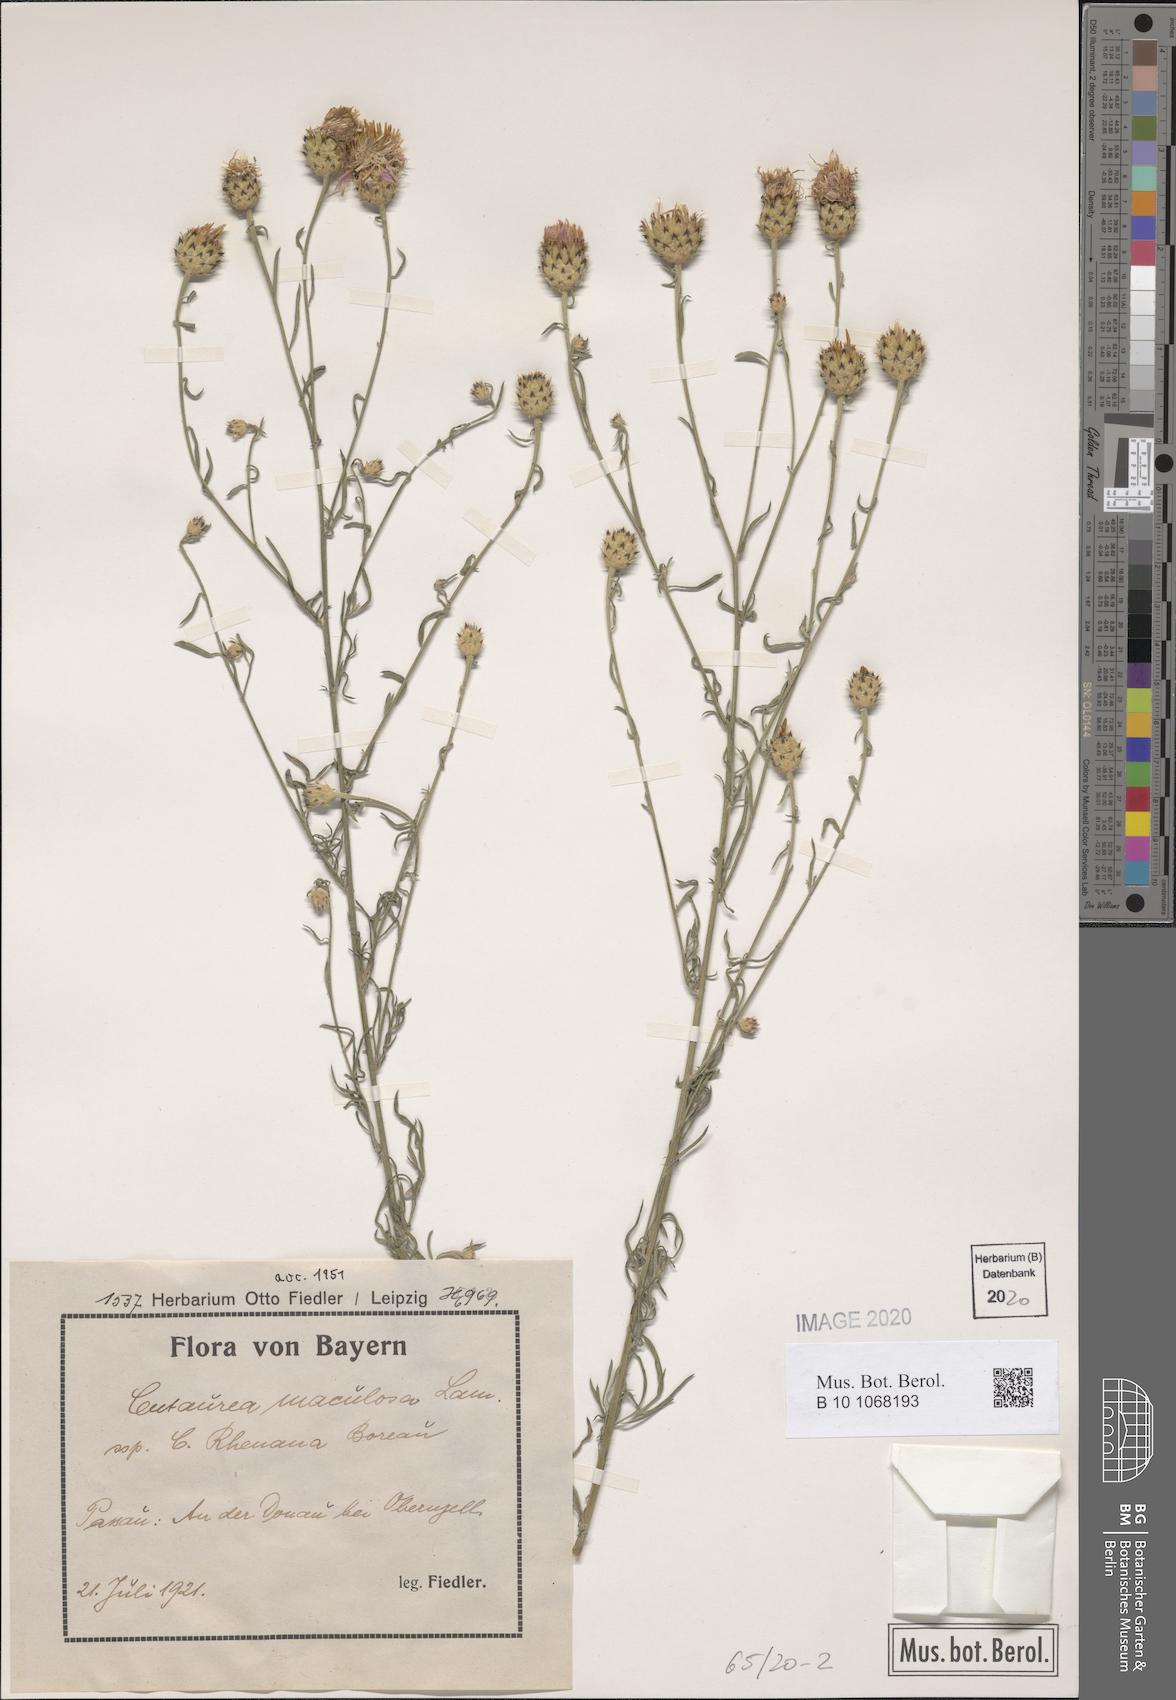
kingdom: Plantae
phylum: Tracheophyta
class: Magnoliopsida
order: Asterales
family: Asteraceae
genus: Centaurea
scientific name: Centaurea stoebe
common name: Spotted knapweed
